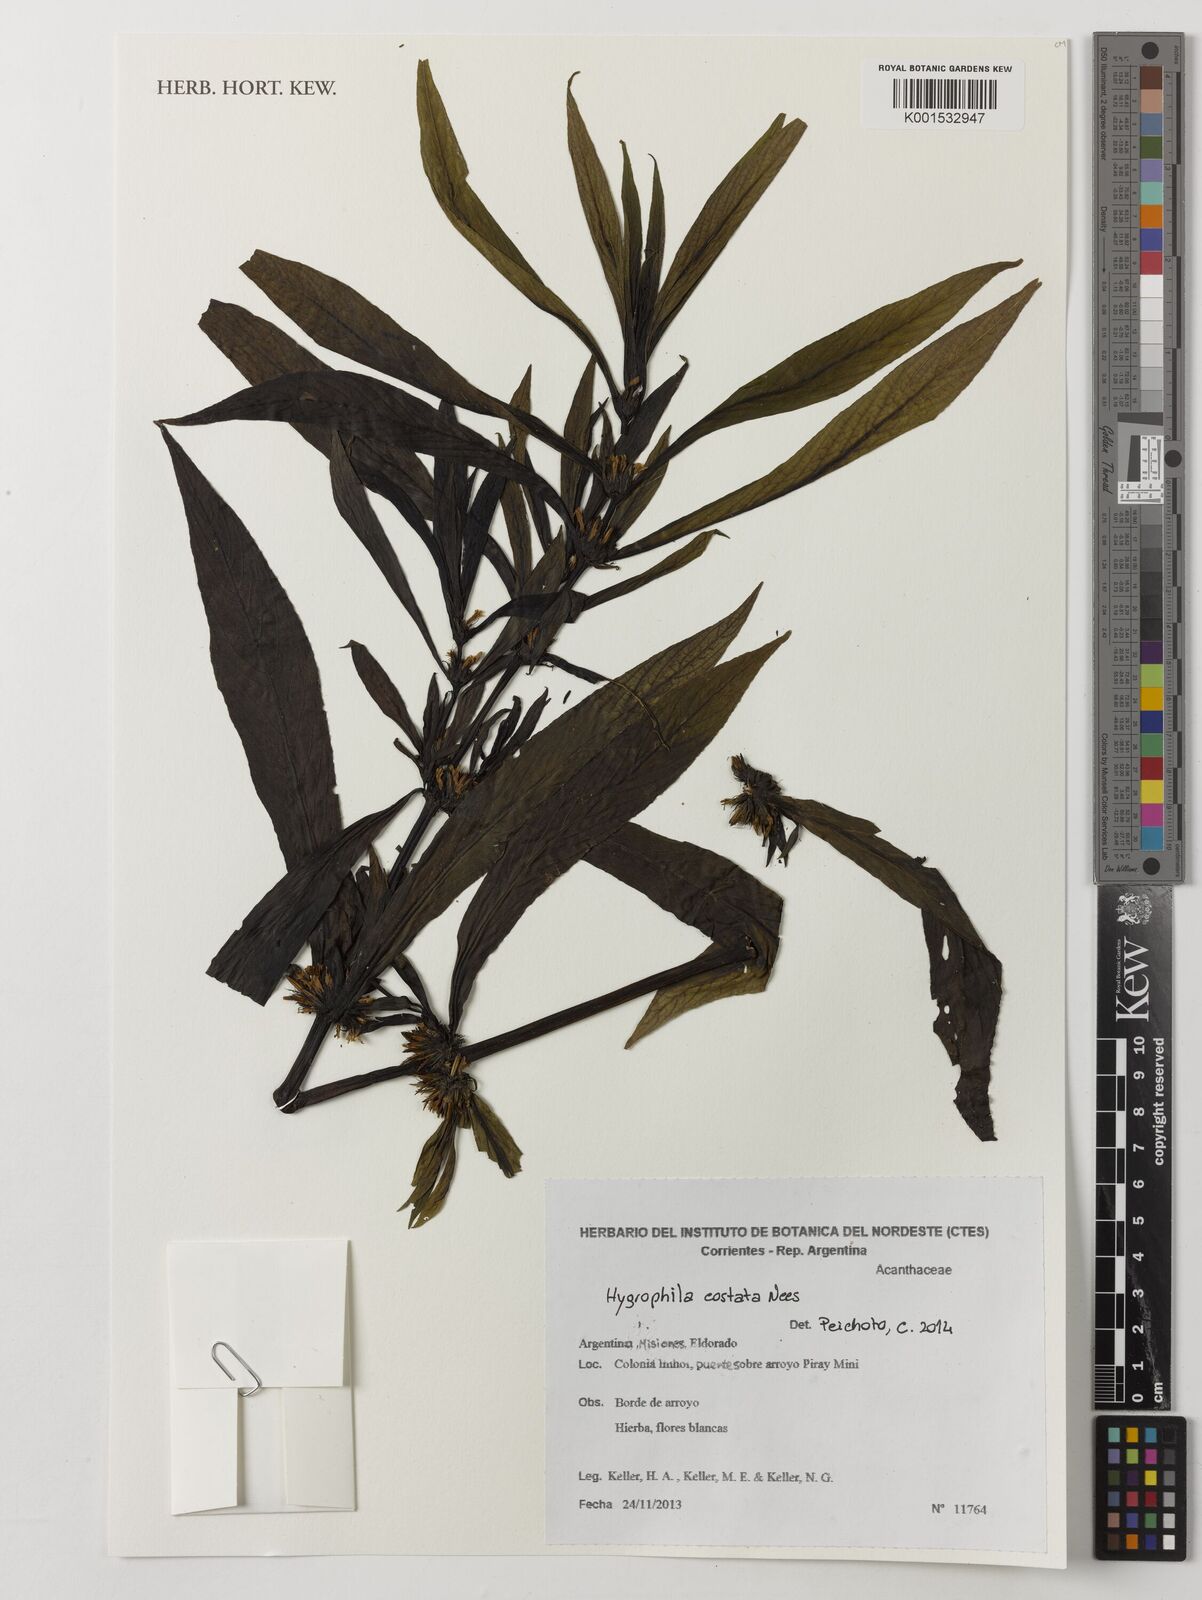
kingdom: Plantae
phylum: Tracheophyta
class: Magnoliopsida
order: Lamiales
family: Acanthaceae
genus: Hygrophila
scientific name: Hygrophila costata
